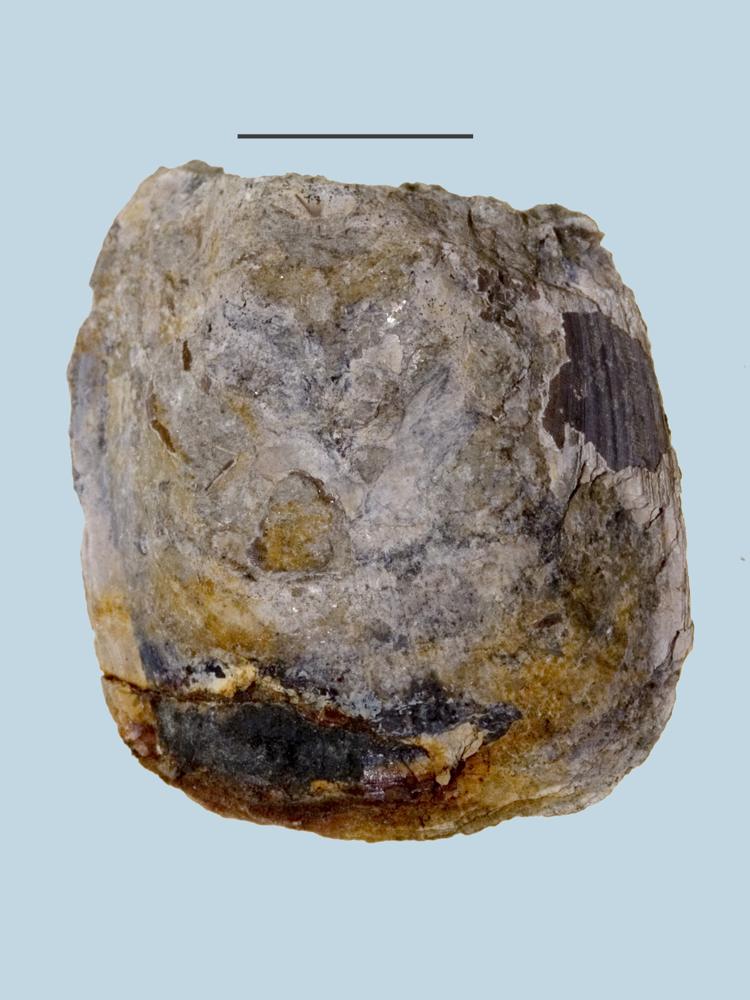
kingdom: Animalia
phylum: Brachiopoda
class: Lingulata
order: Lingulida
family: Lingulidae
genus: Lingula
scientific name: Lingula
